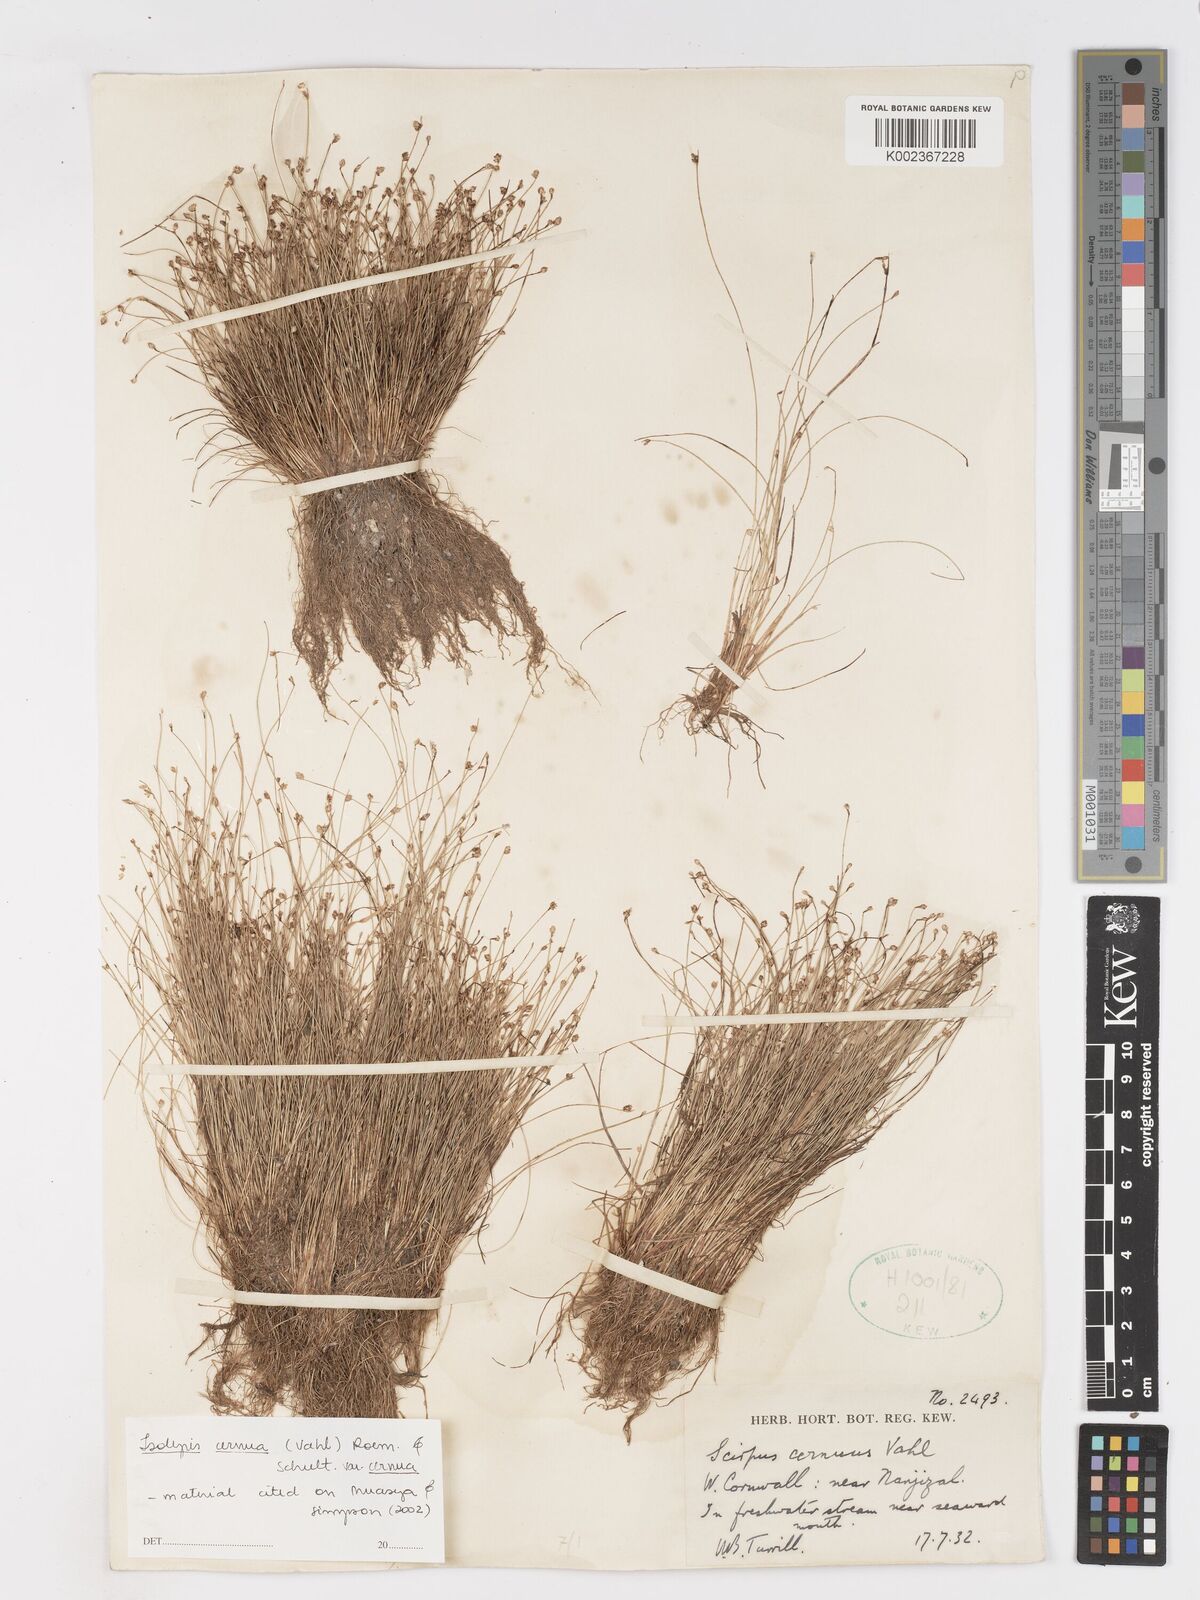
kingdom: Plantae
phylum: Tracheophyta
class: Liliopsida
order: Poales
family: Cyperaceae
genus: Isolepis
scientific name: Isolepis cernua
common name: Slender club-rush
